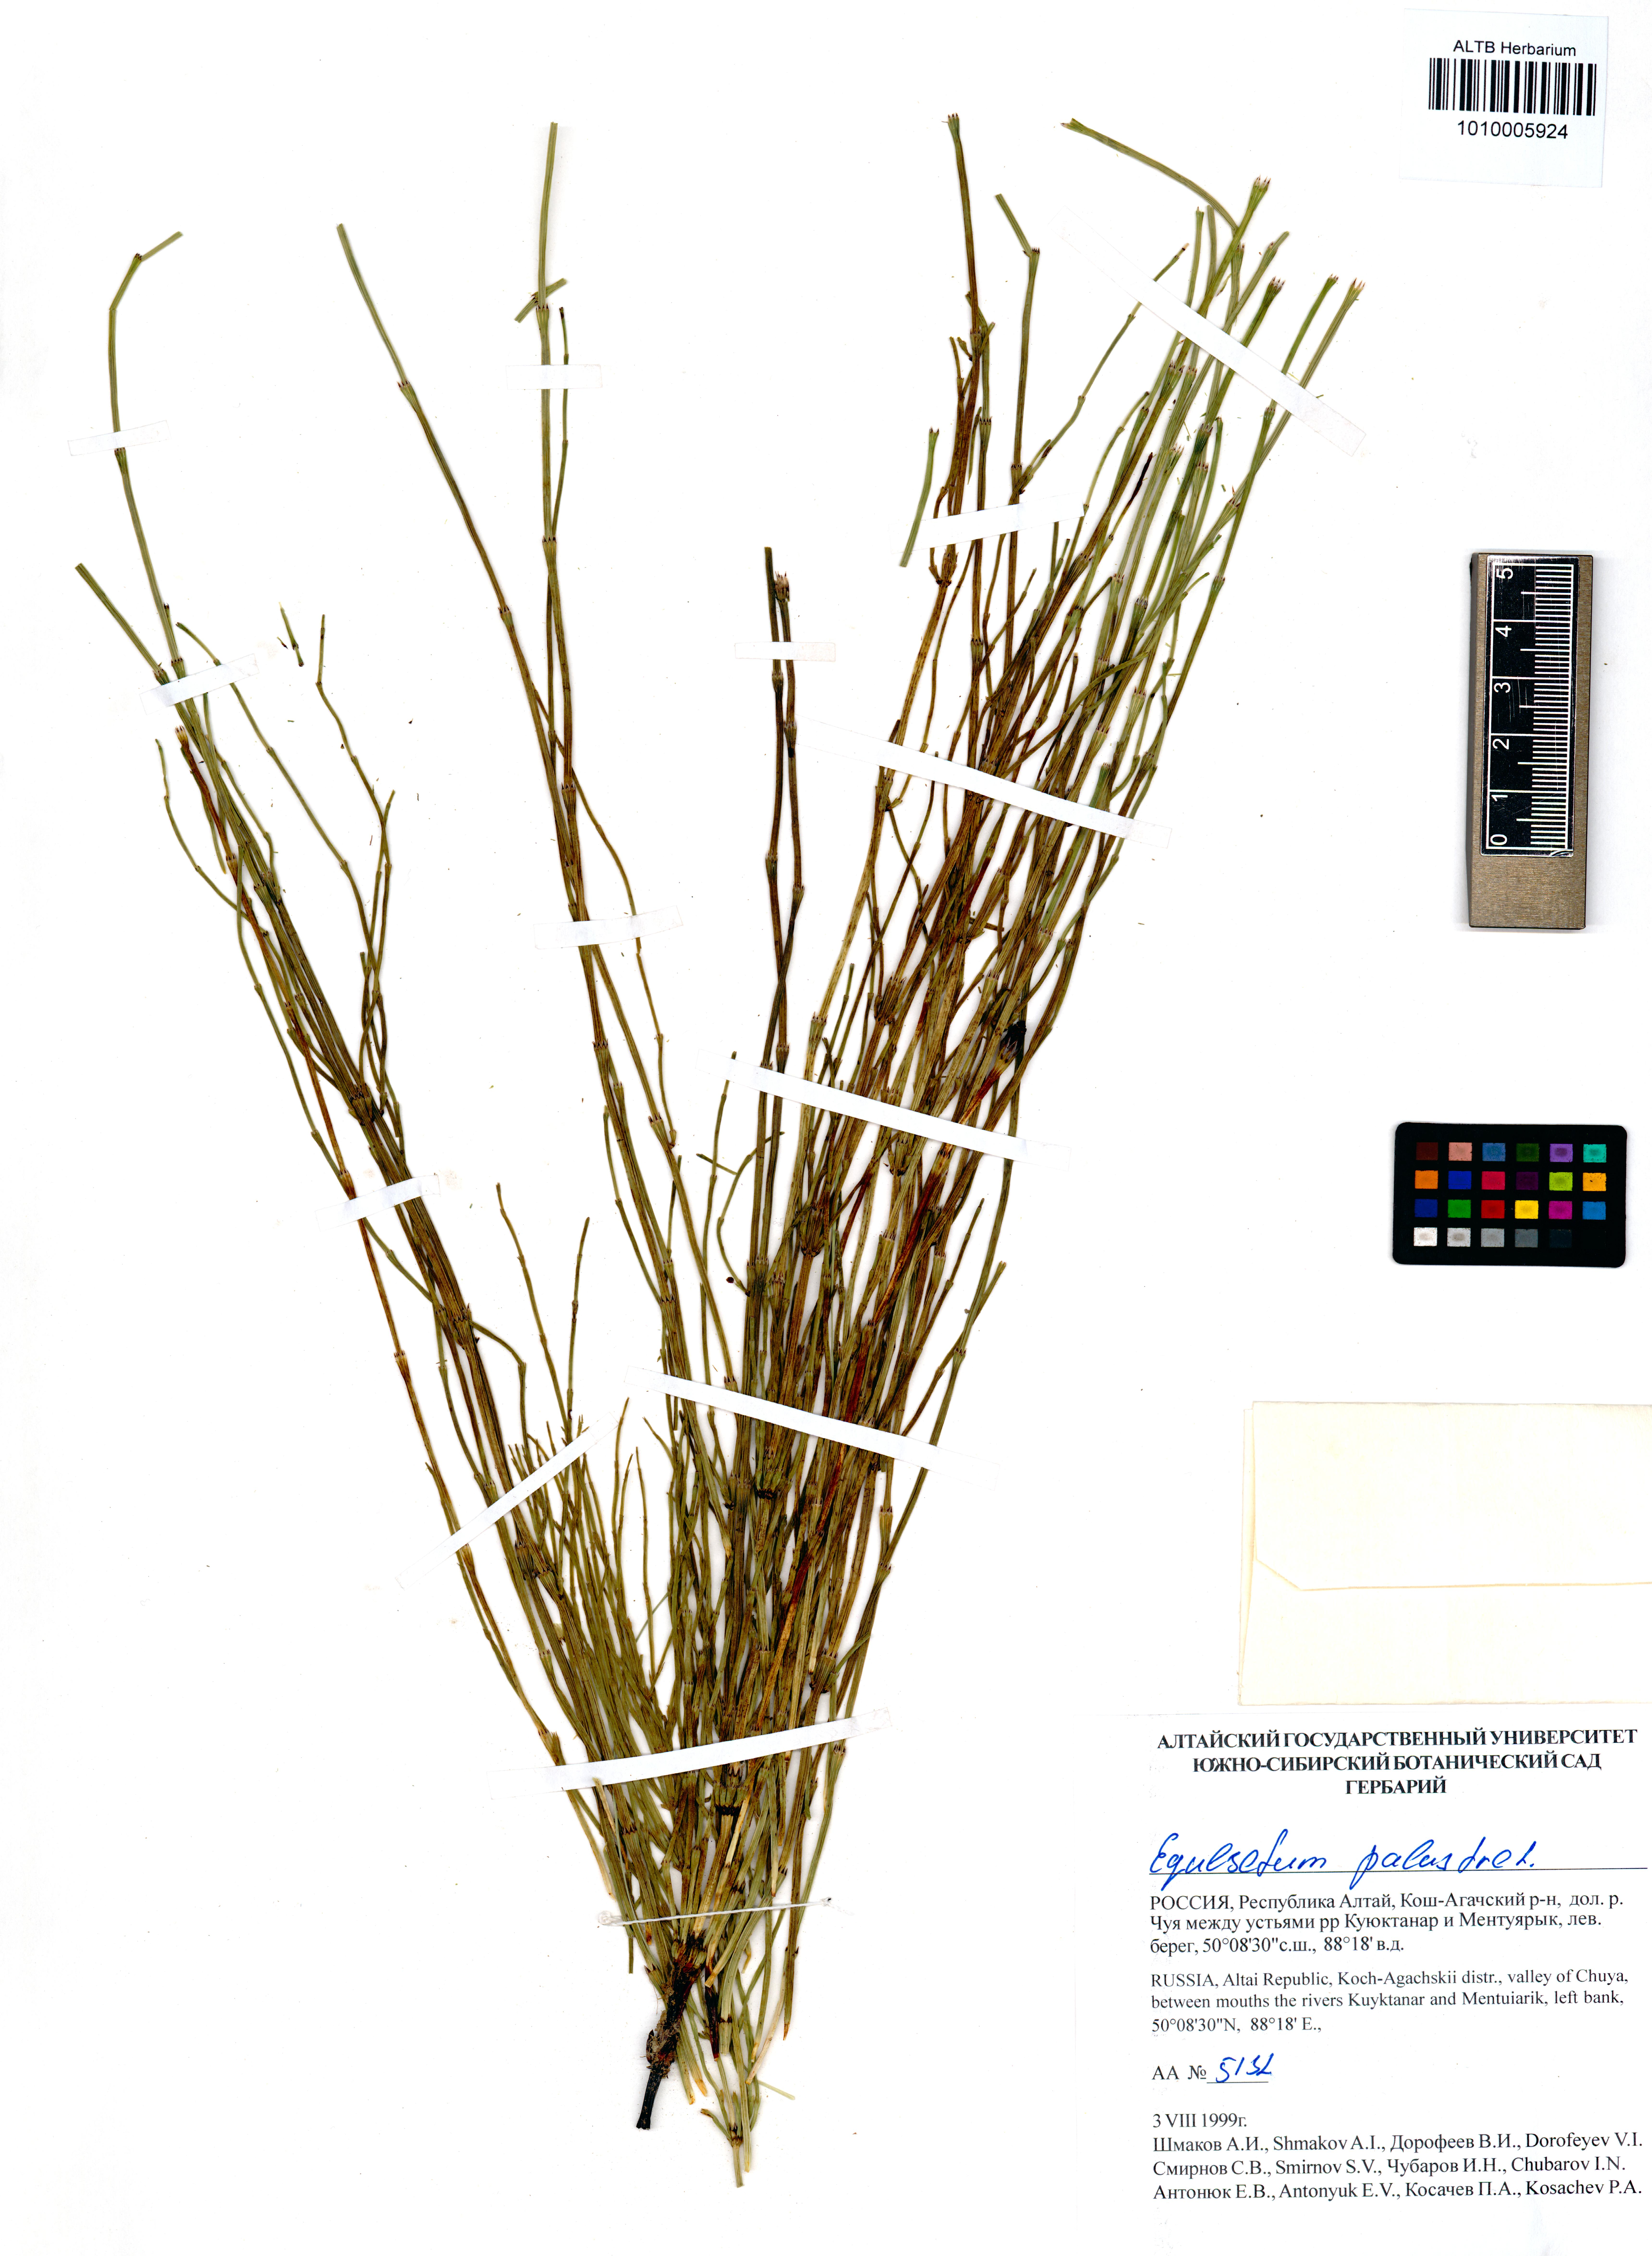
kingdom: Plantae
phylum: Tracheophyta
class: Polypodiopsida
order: Equisetales
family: Equisetaceae
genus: Equisetum
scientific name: Equisetum palustre
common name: Marsh horsetail
